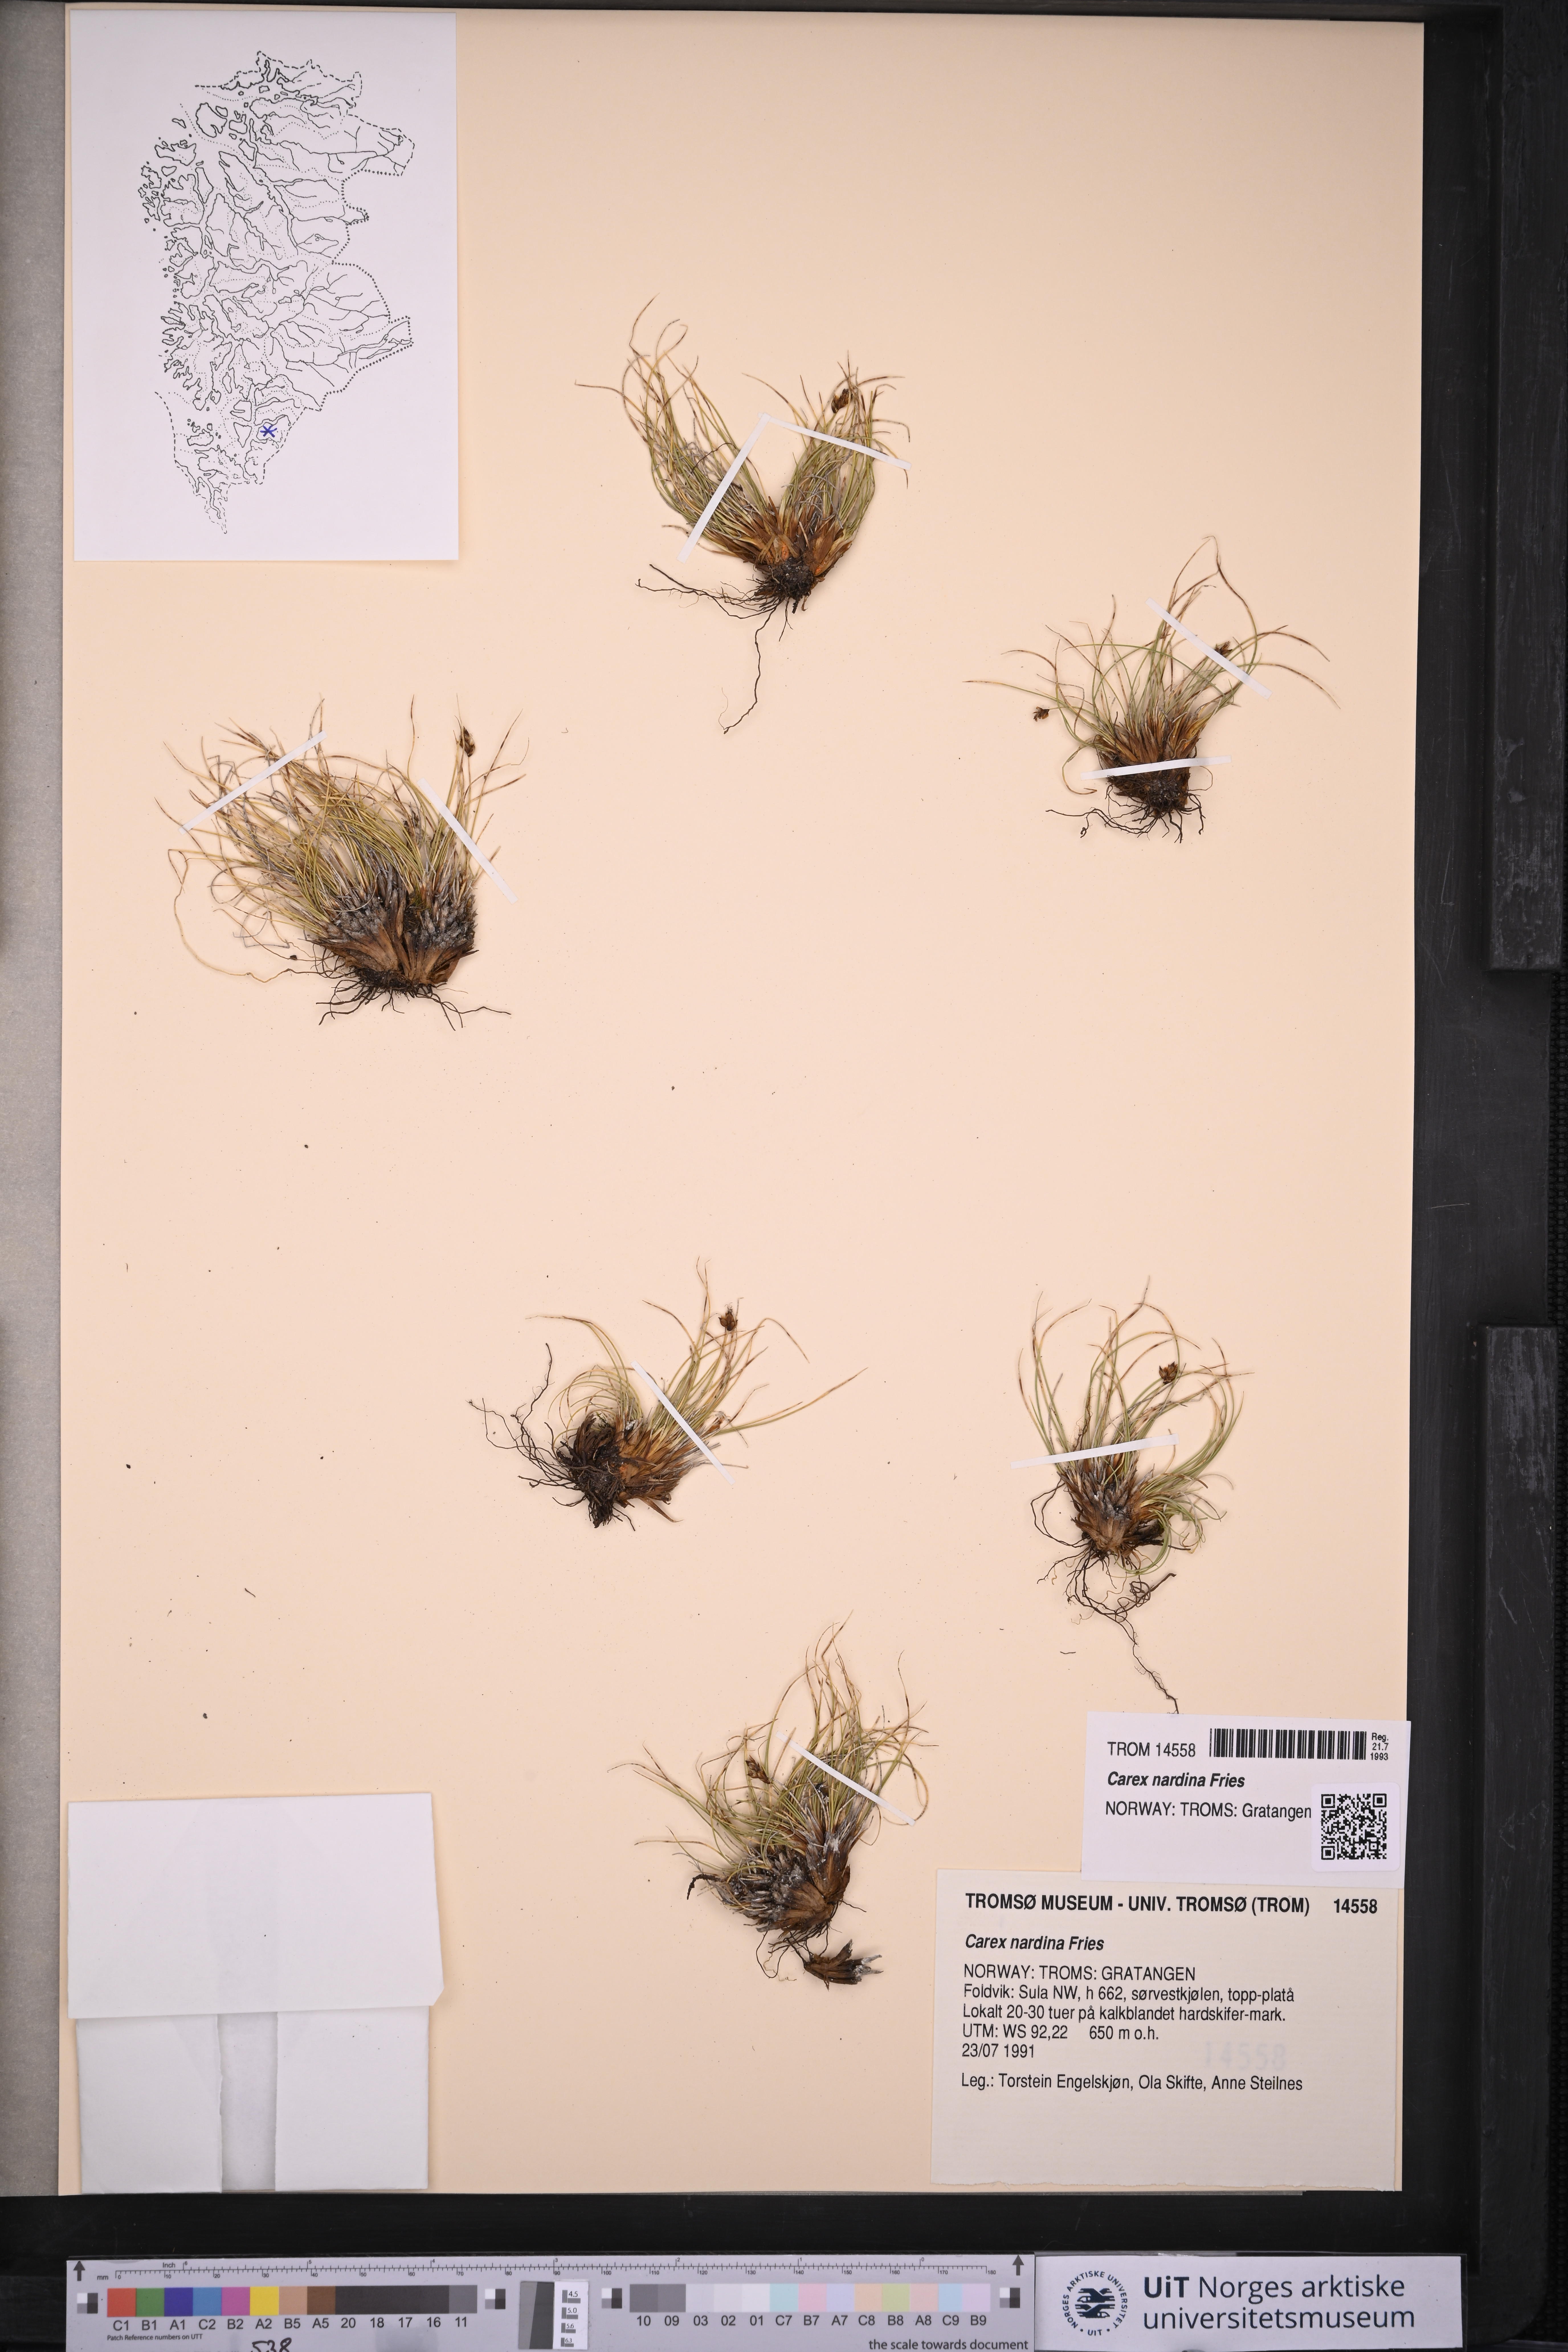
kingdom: Plantae
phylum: Tracheophyta
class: Liliopsida
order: Poales
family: Cyperaceae
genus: Carex
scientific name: Carex nardina
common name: Nard sedge
